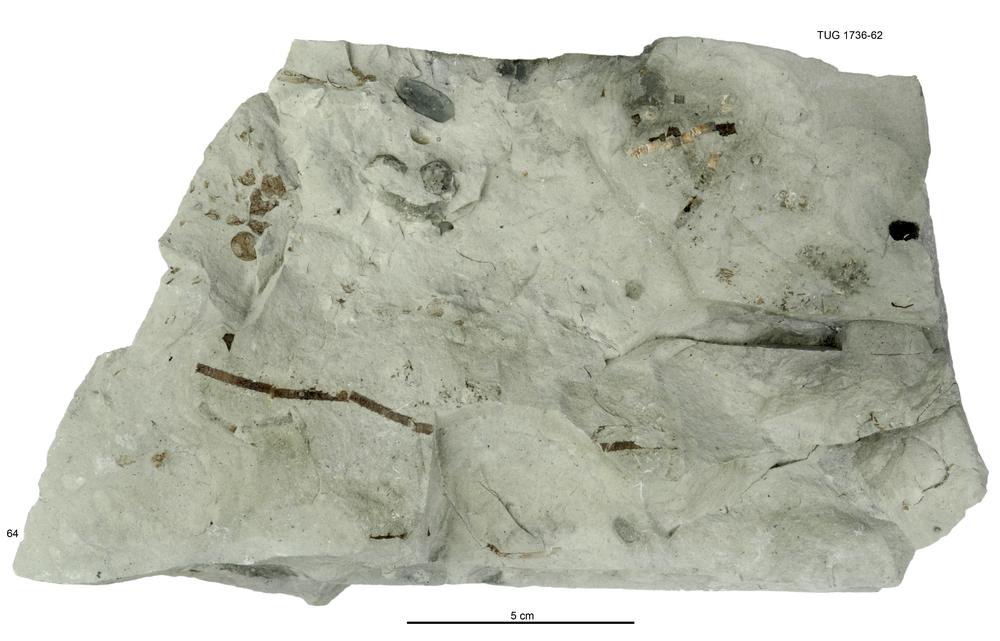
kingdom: Animalia
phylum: Echinodermata
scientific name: Echinodermata
